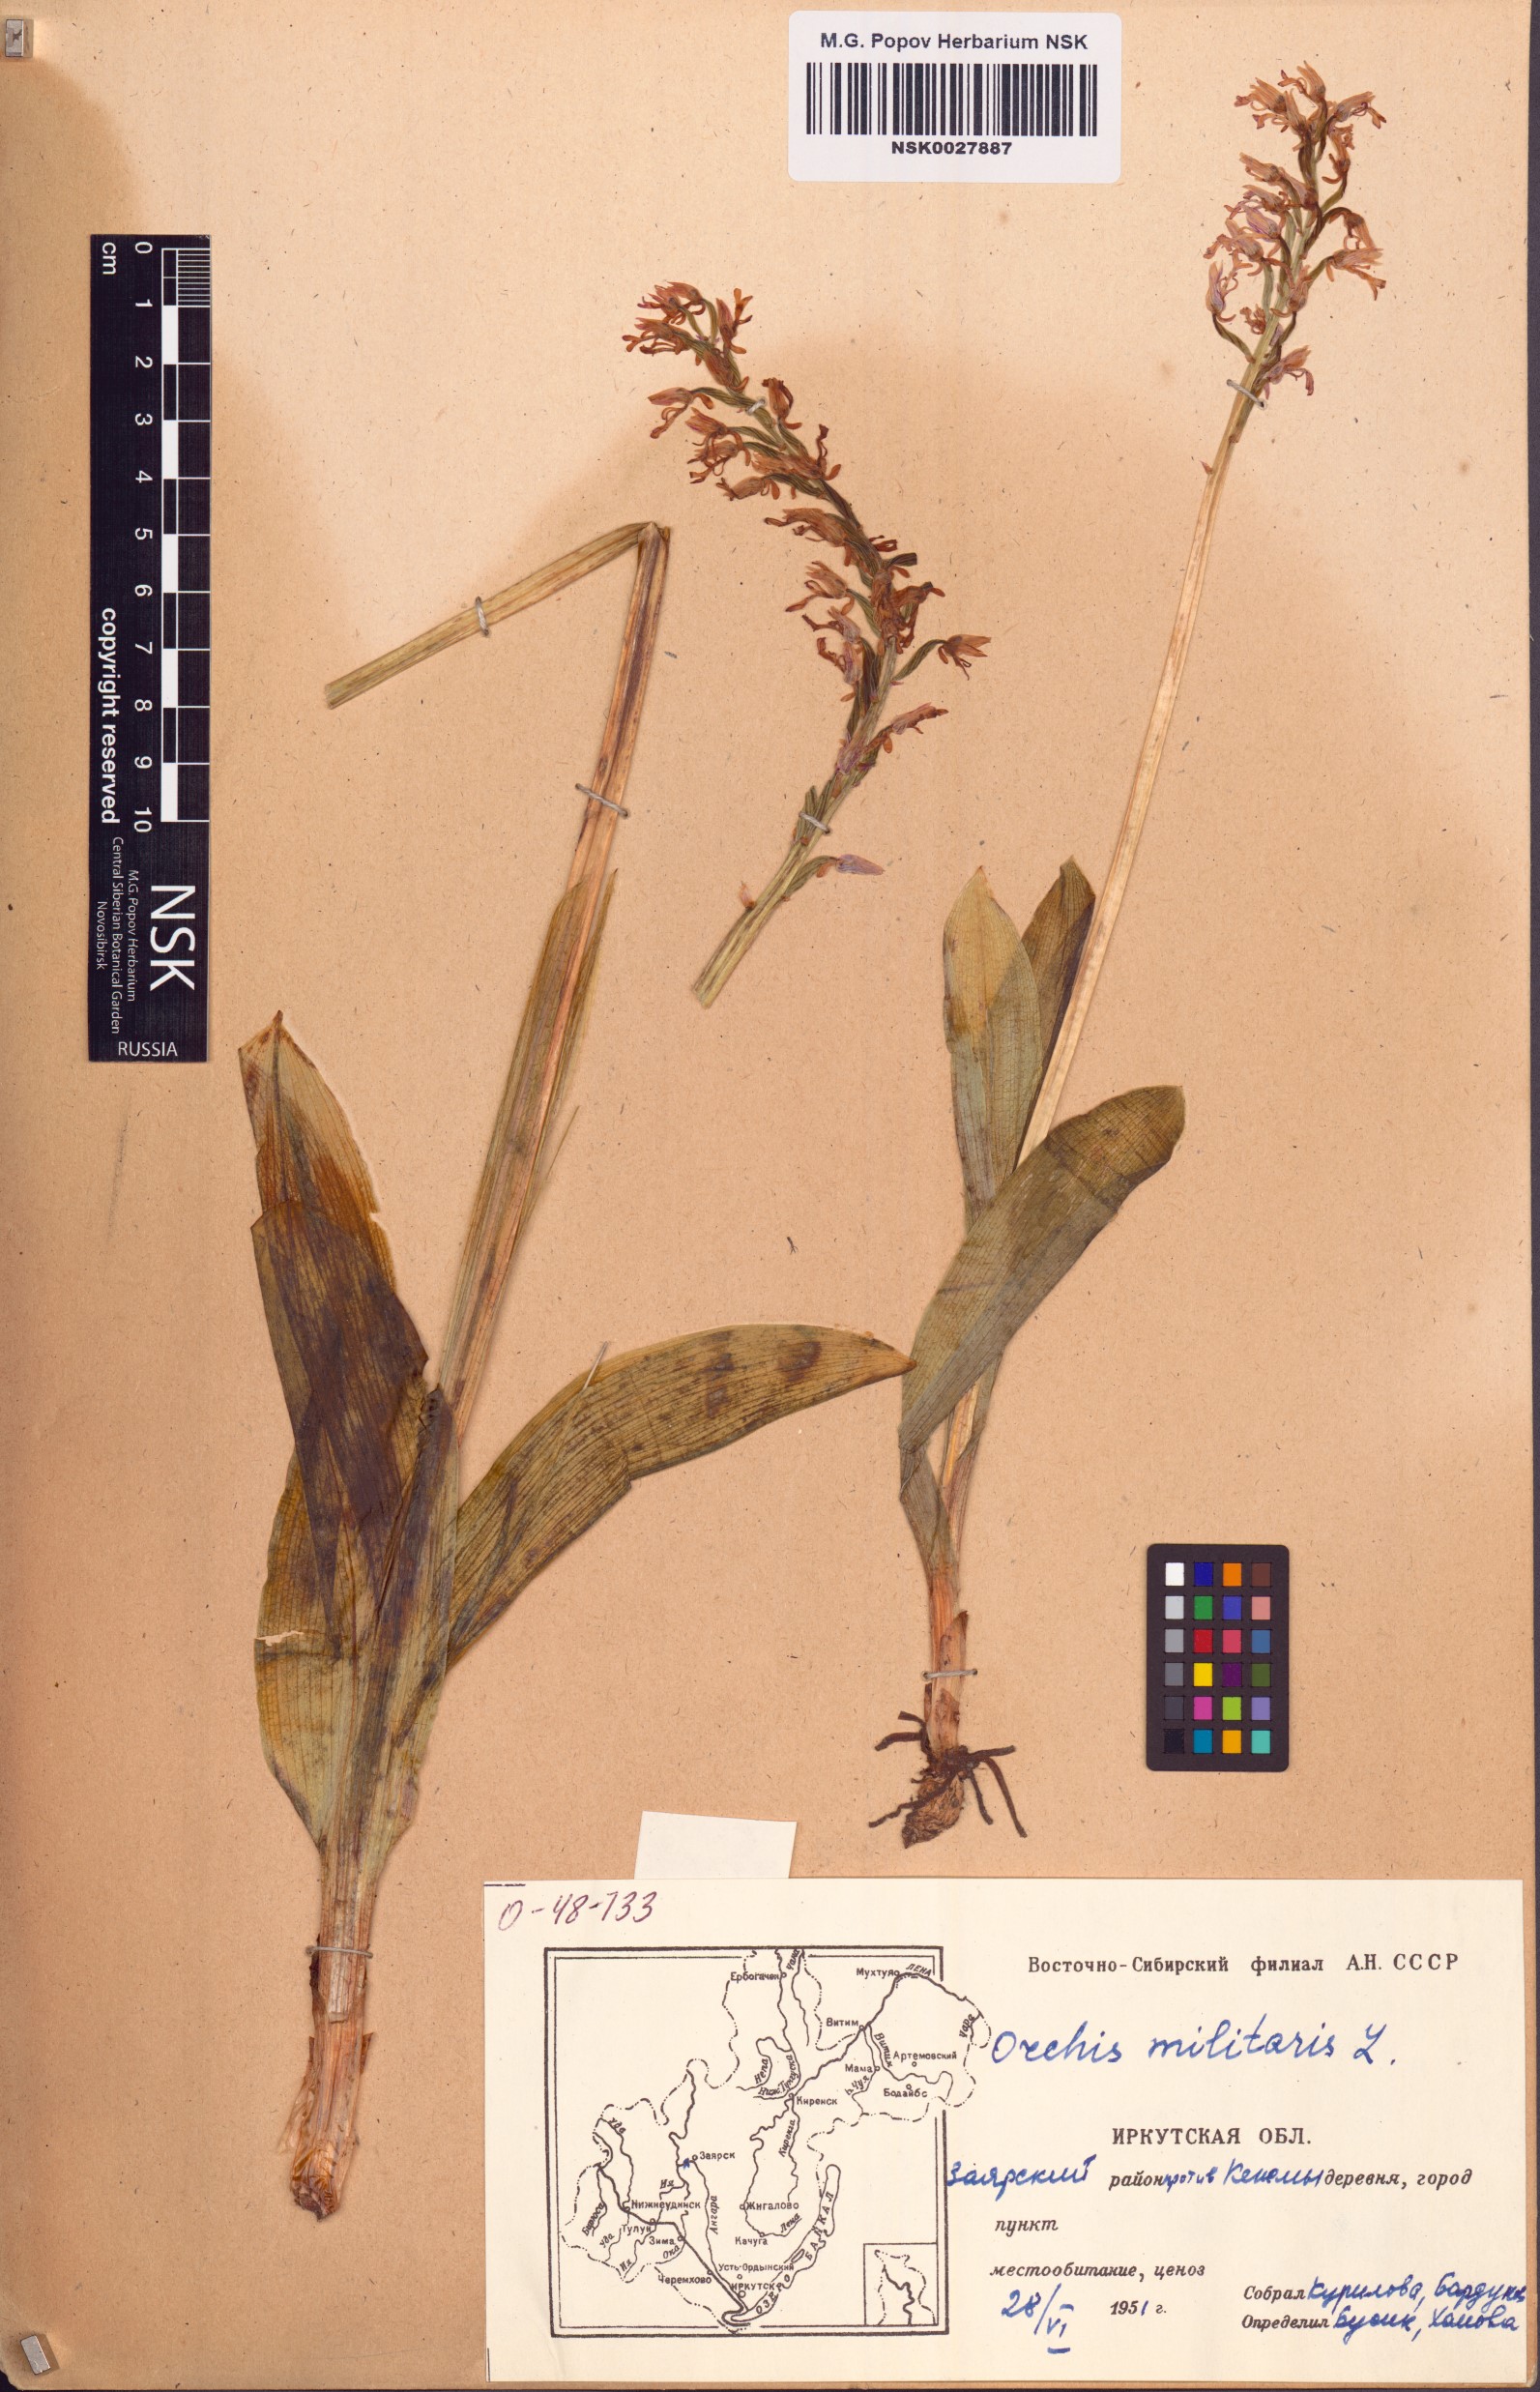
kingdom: Plantae
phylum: Tracheophyta
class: Liliopsida
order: Asparagales
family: Orchidaceae
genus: Orchis
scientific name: Orchis militaris
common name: Military orchid
